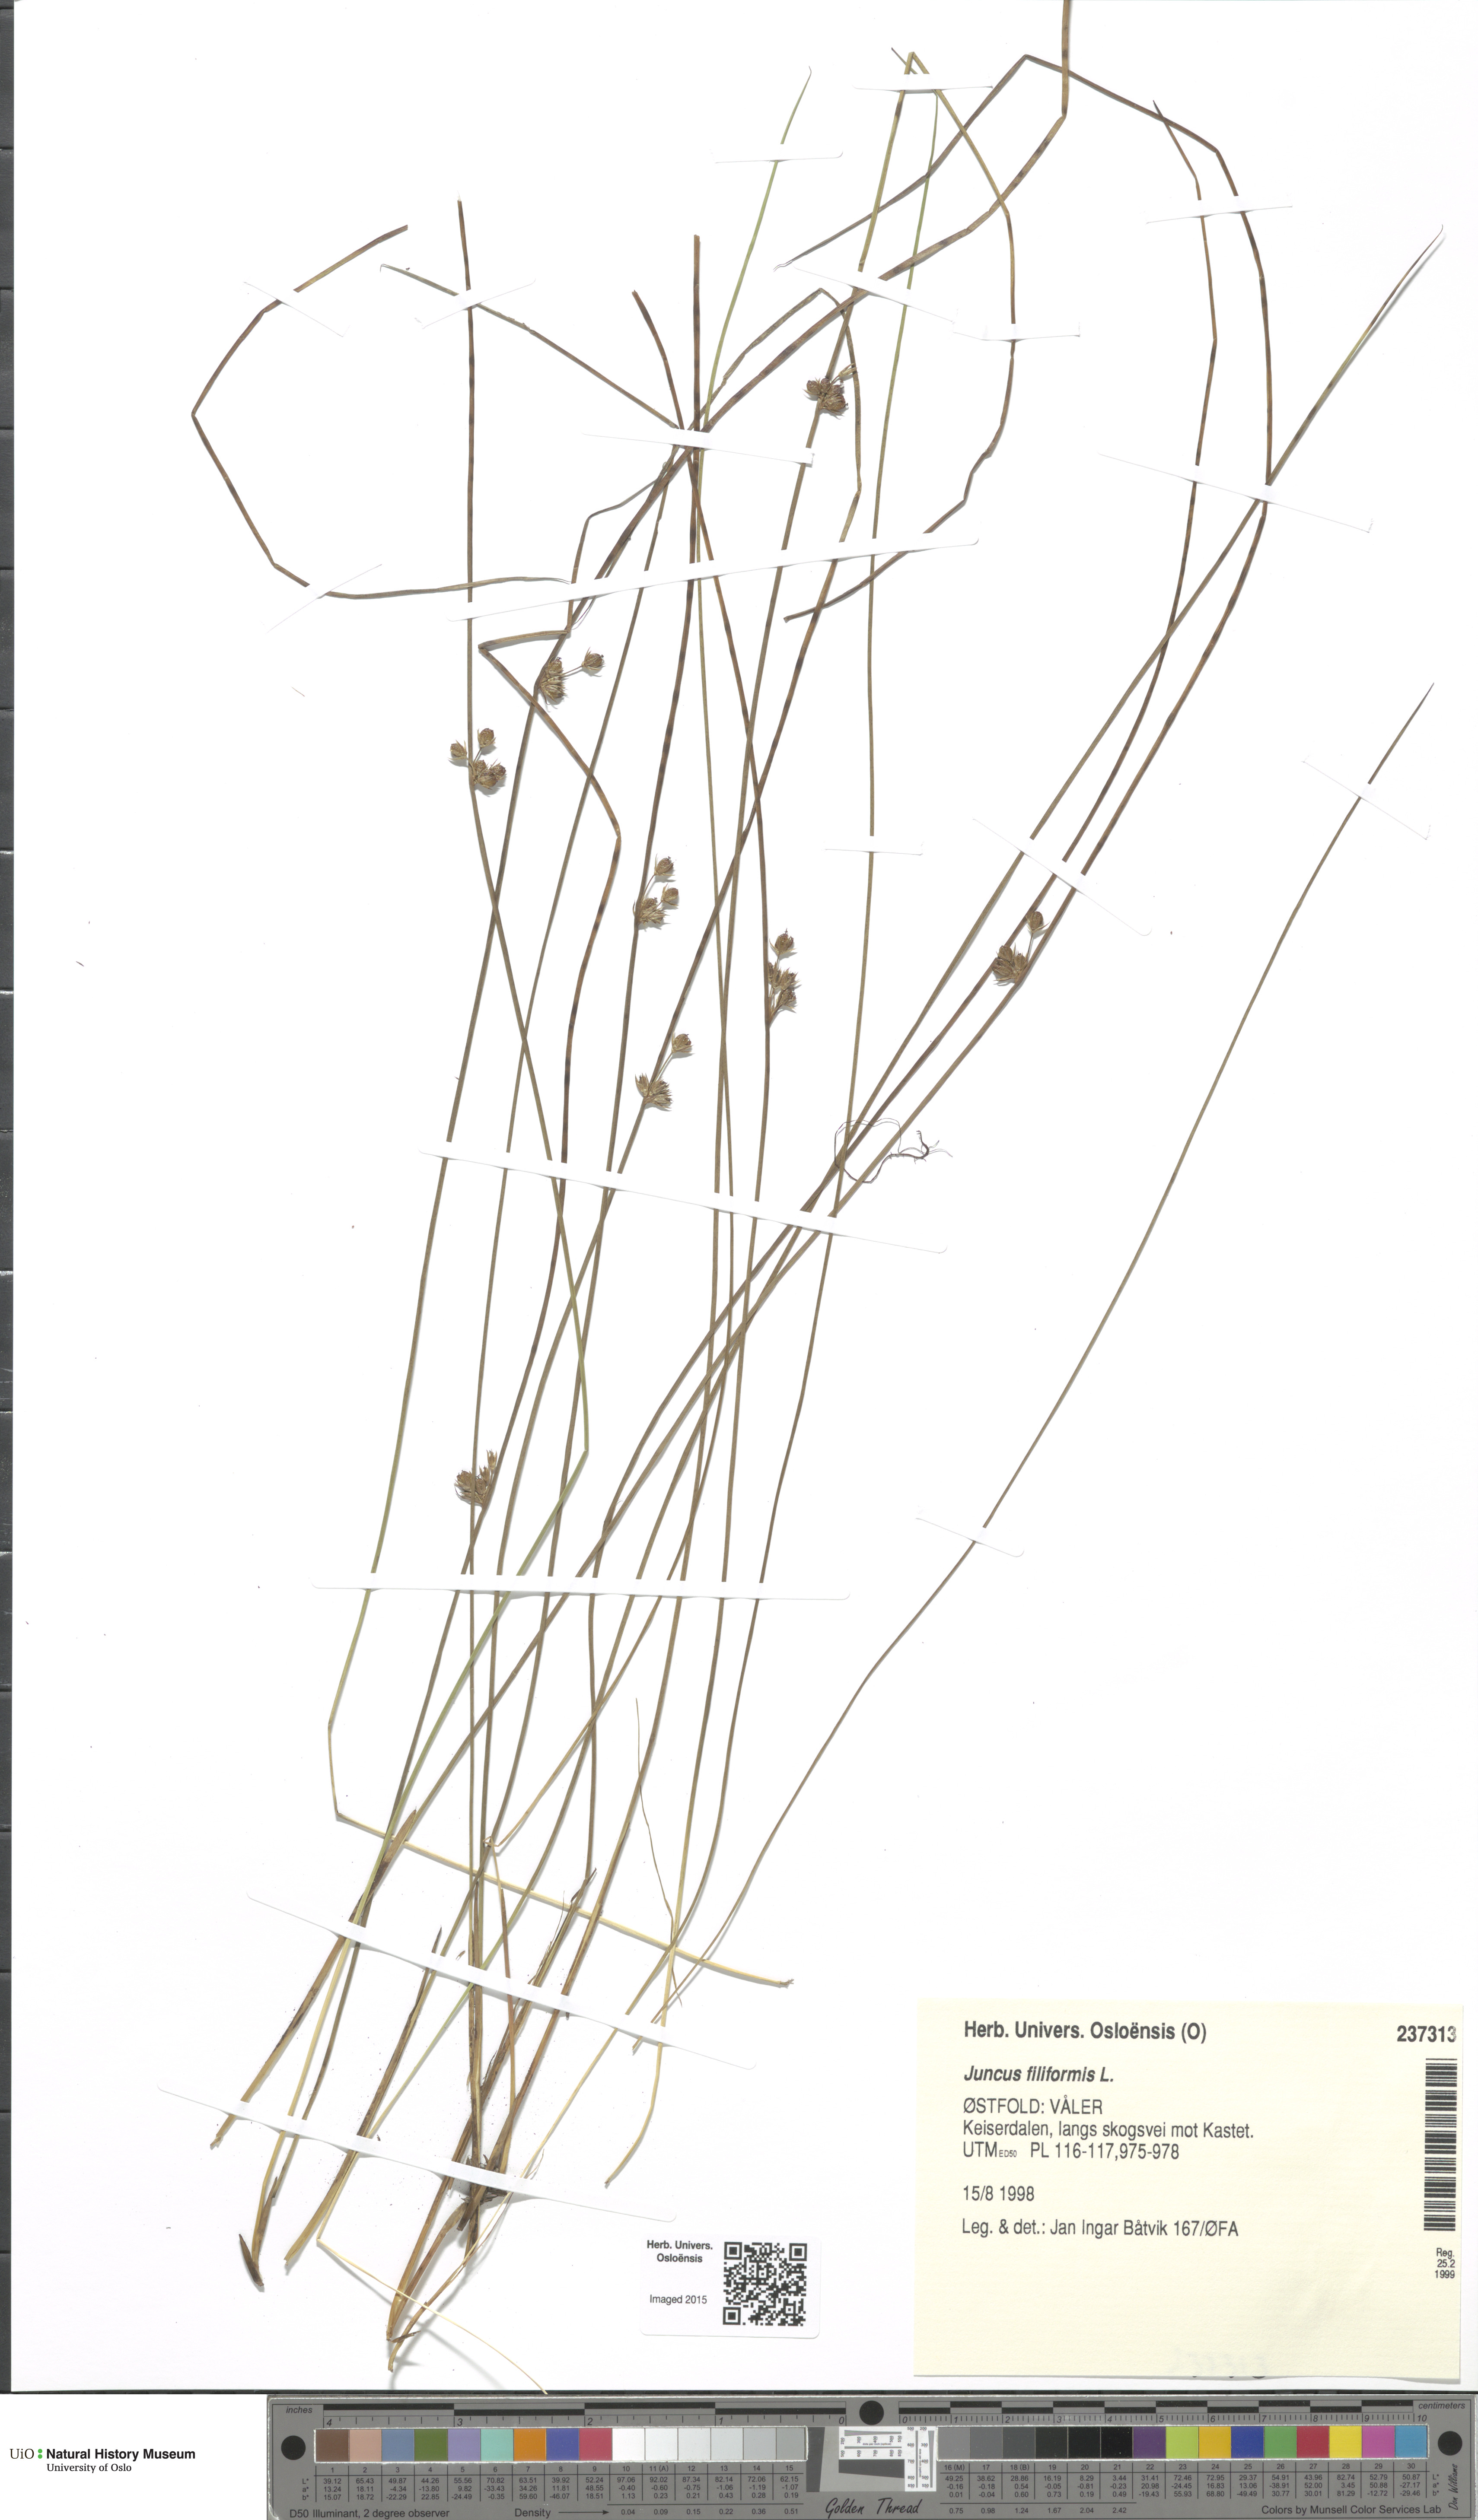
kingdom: Plantae
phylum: Tracheophyta
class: Liliopsida
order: Poales
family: Juncaceae
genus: Juncus
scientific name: Juncus filiformis
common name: Thread rush
